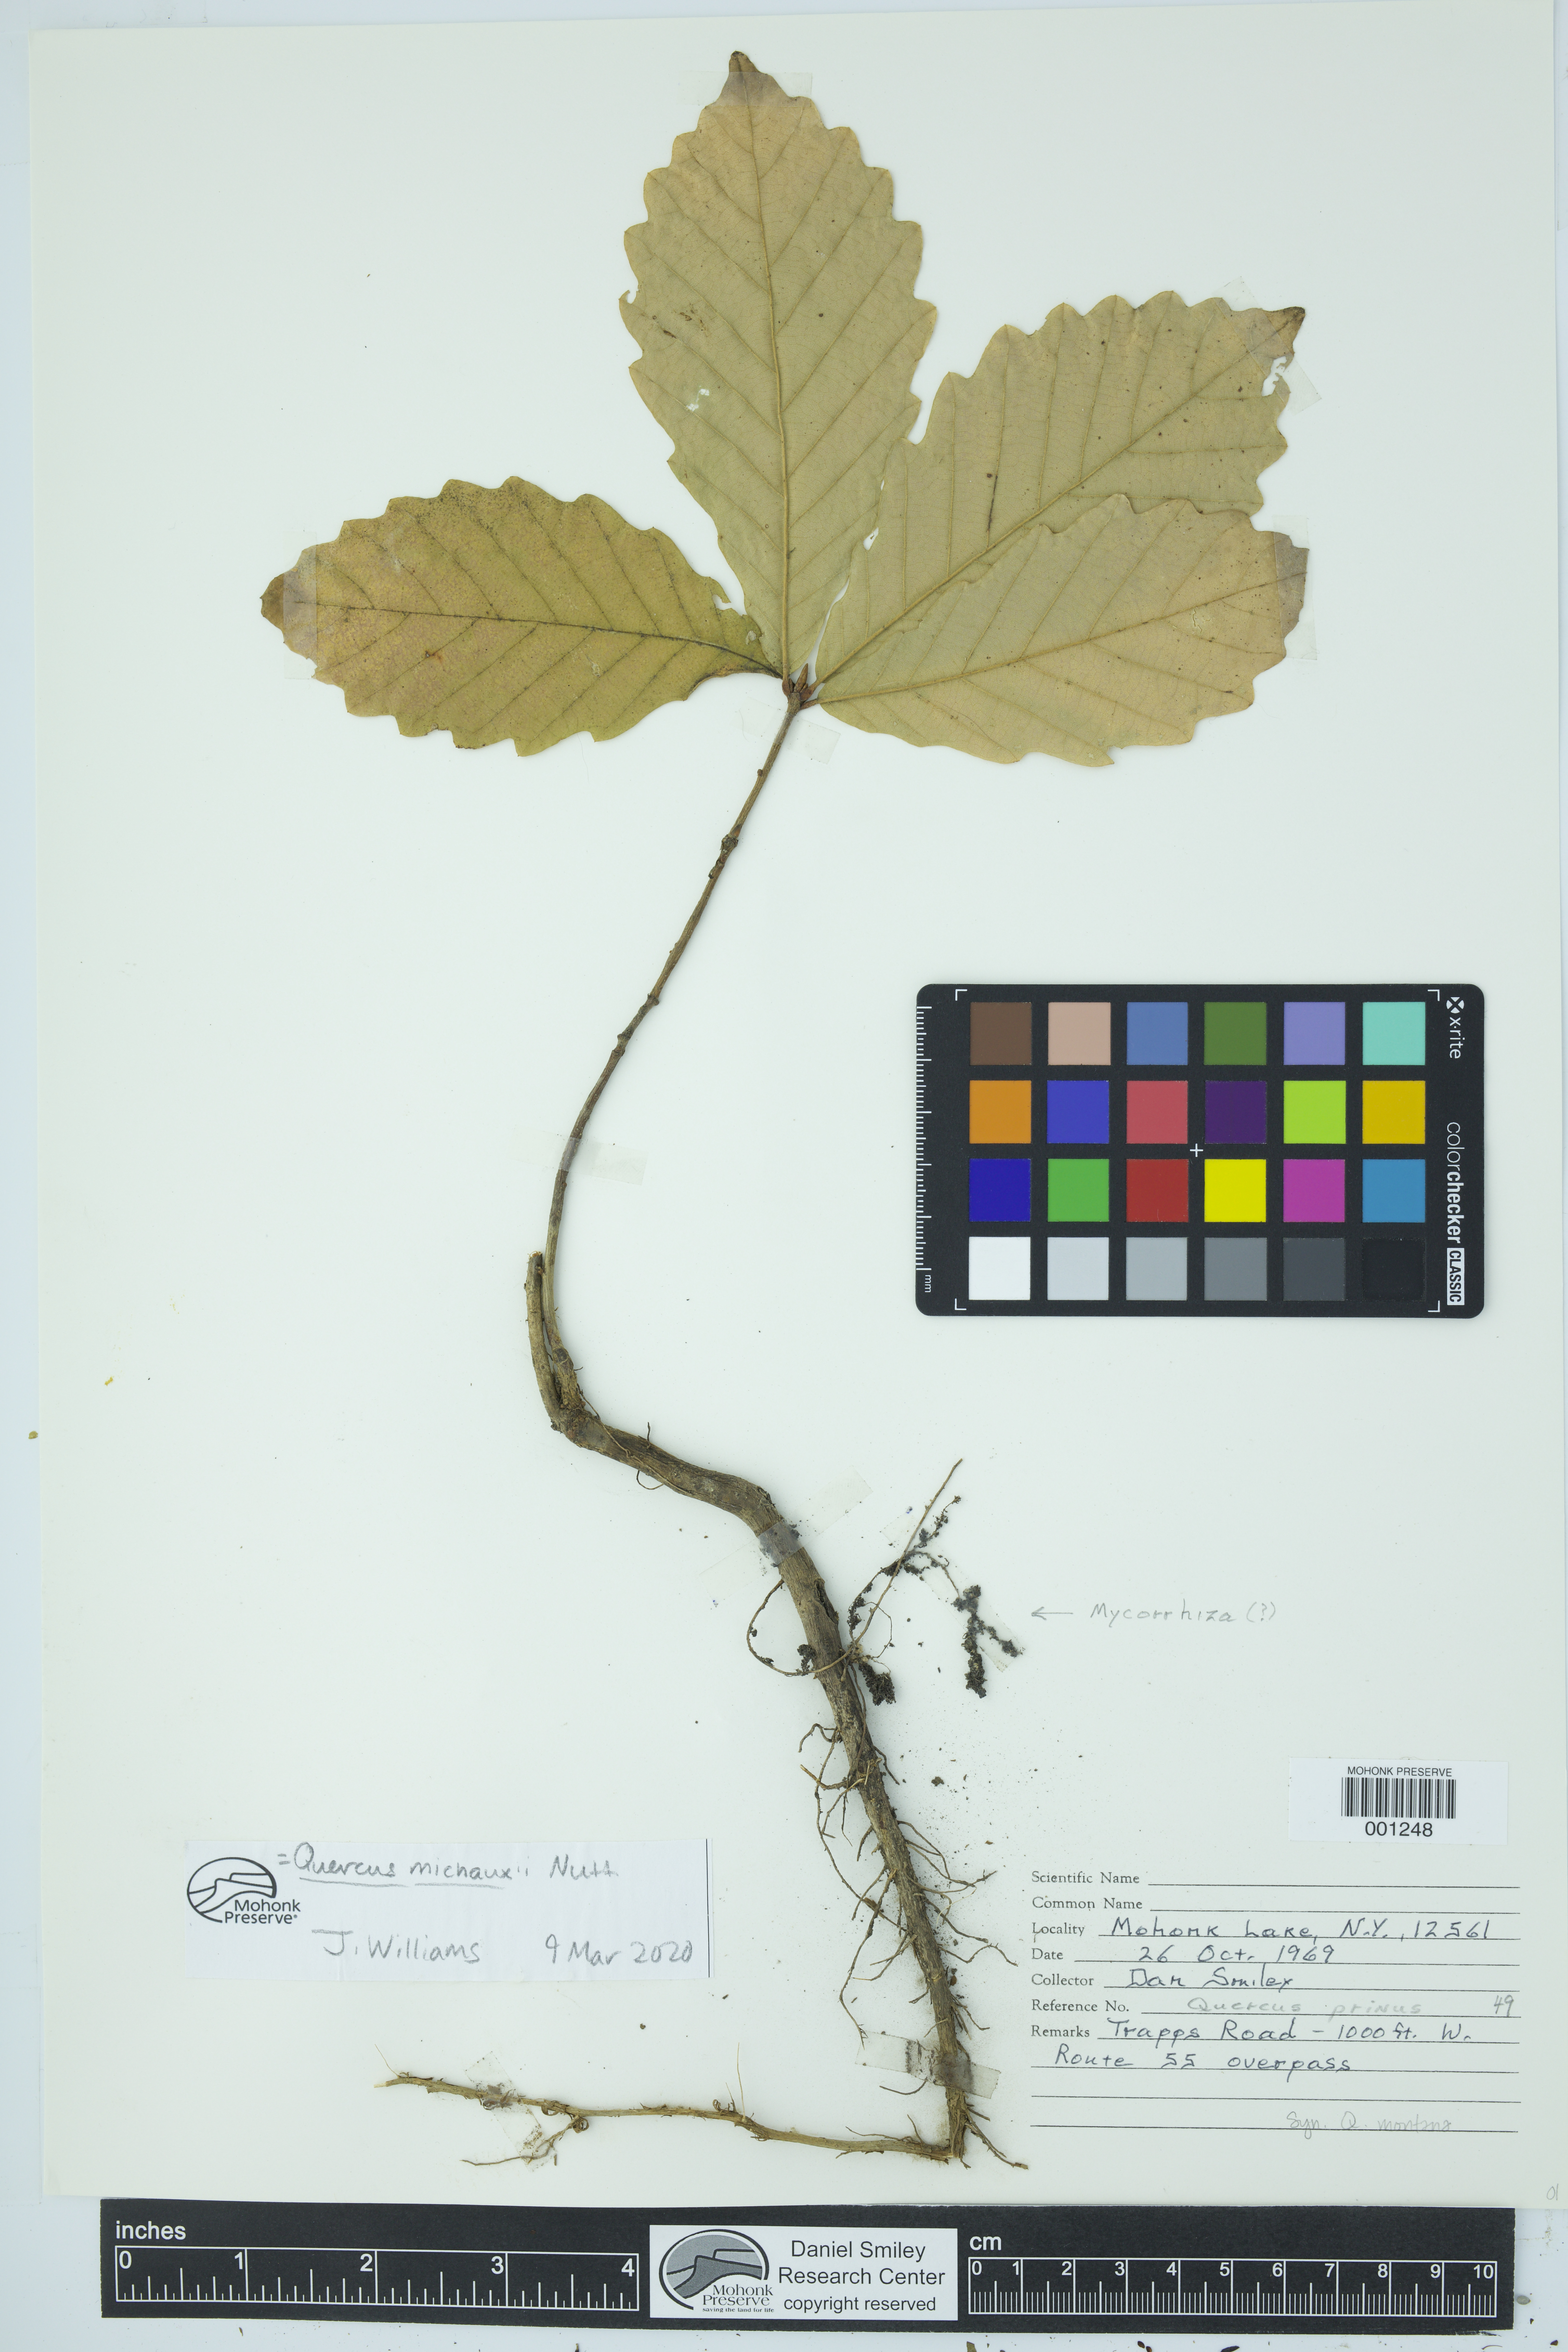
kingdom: Plantae
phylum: Tracheophyta
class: Magnoliopsida
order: Fagales
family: Fagaceae
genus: Quercus
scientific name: Quercus michauxii
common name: Swamp chestnut oak
